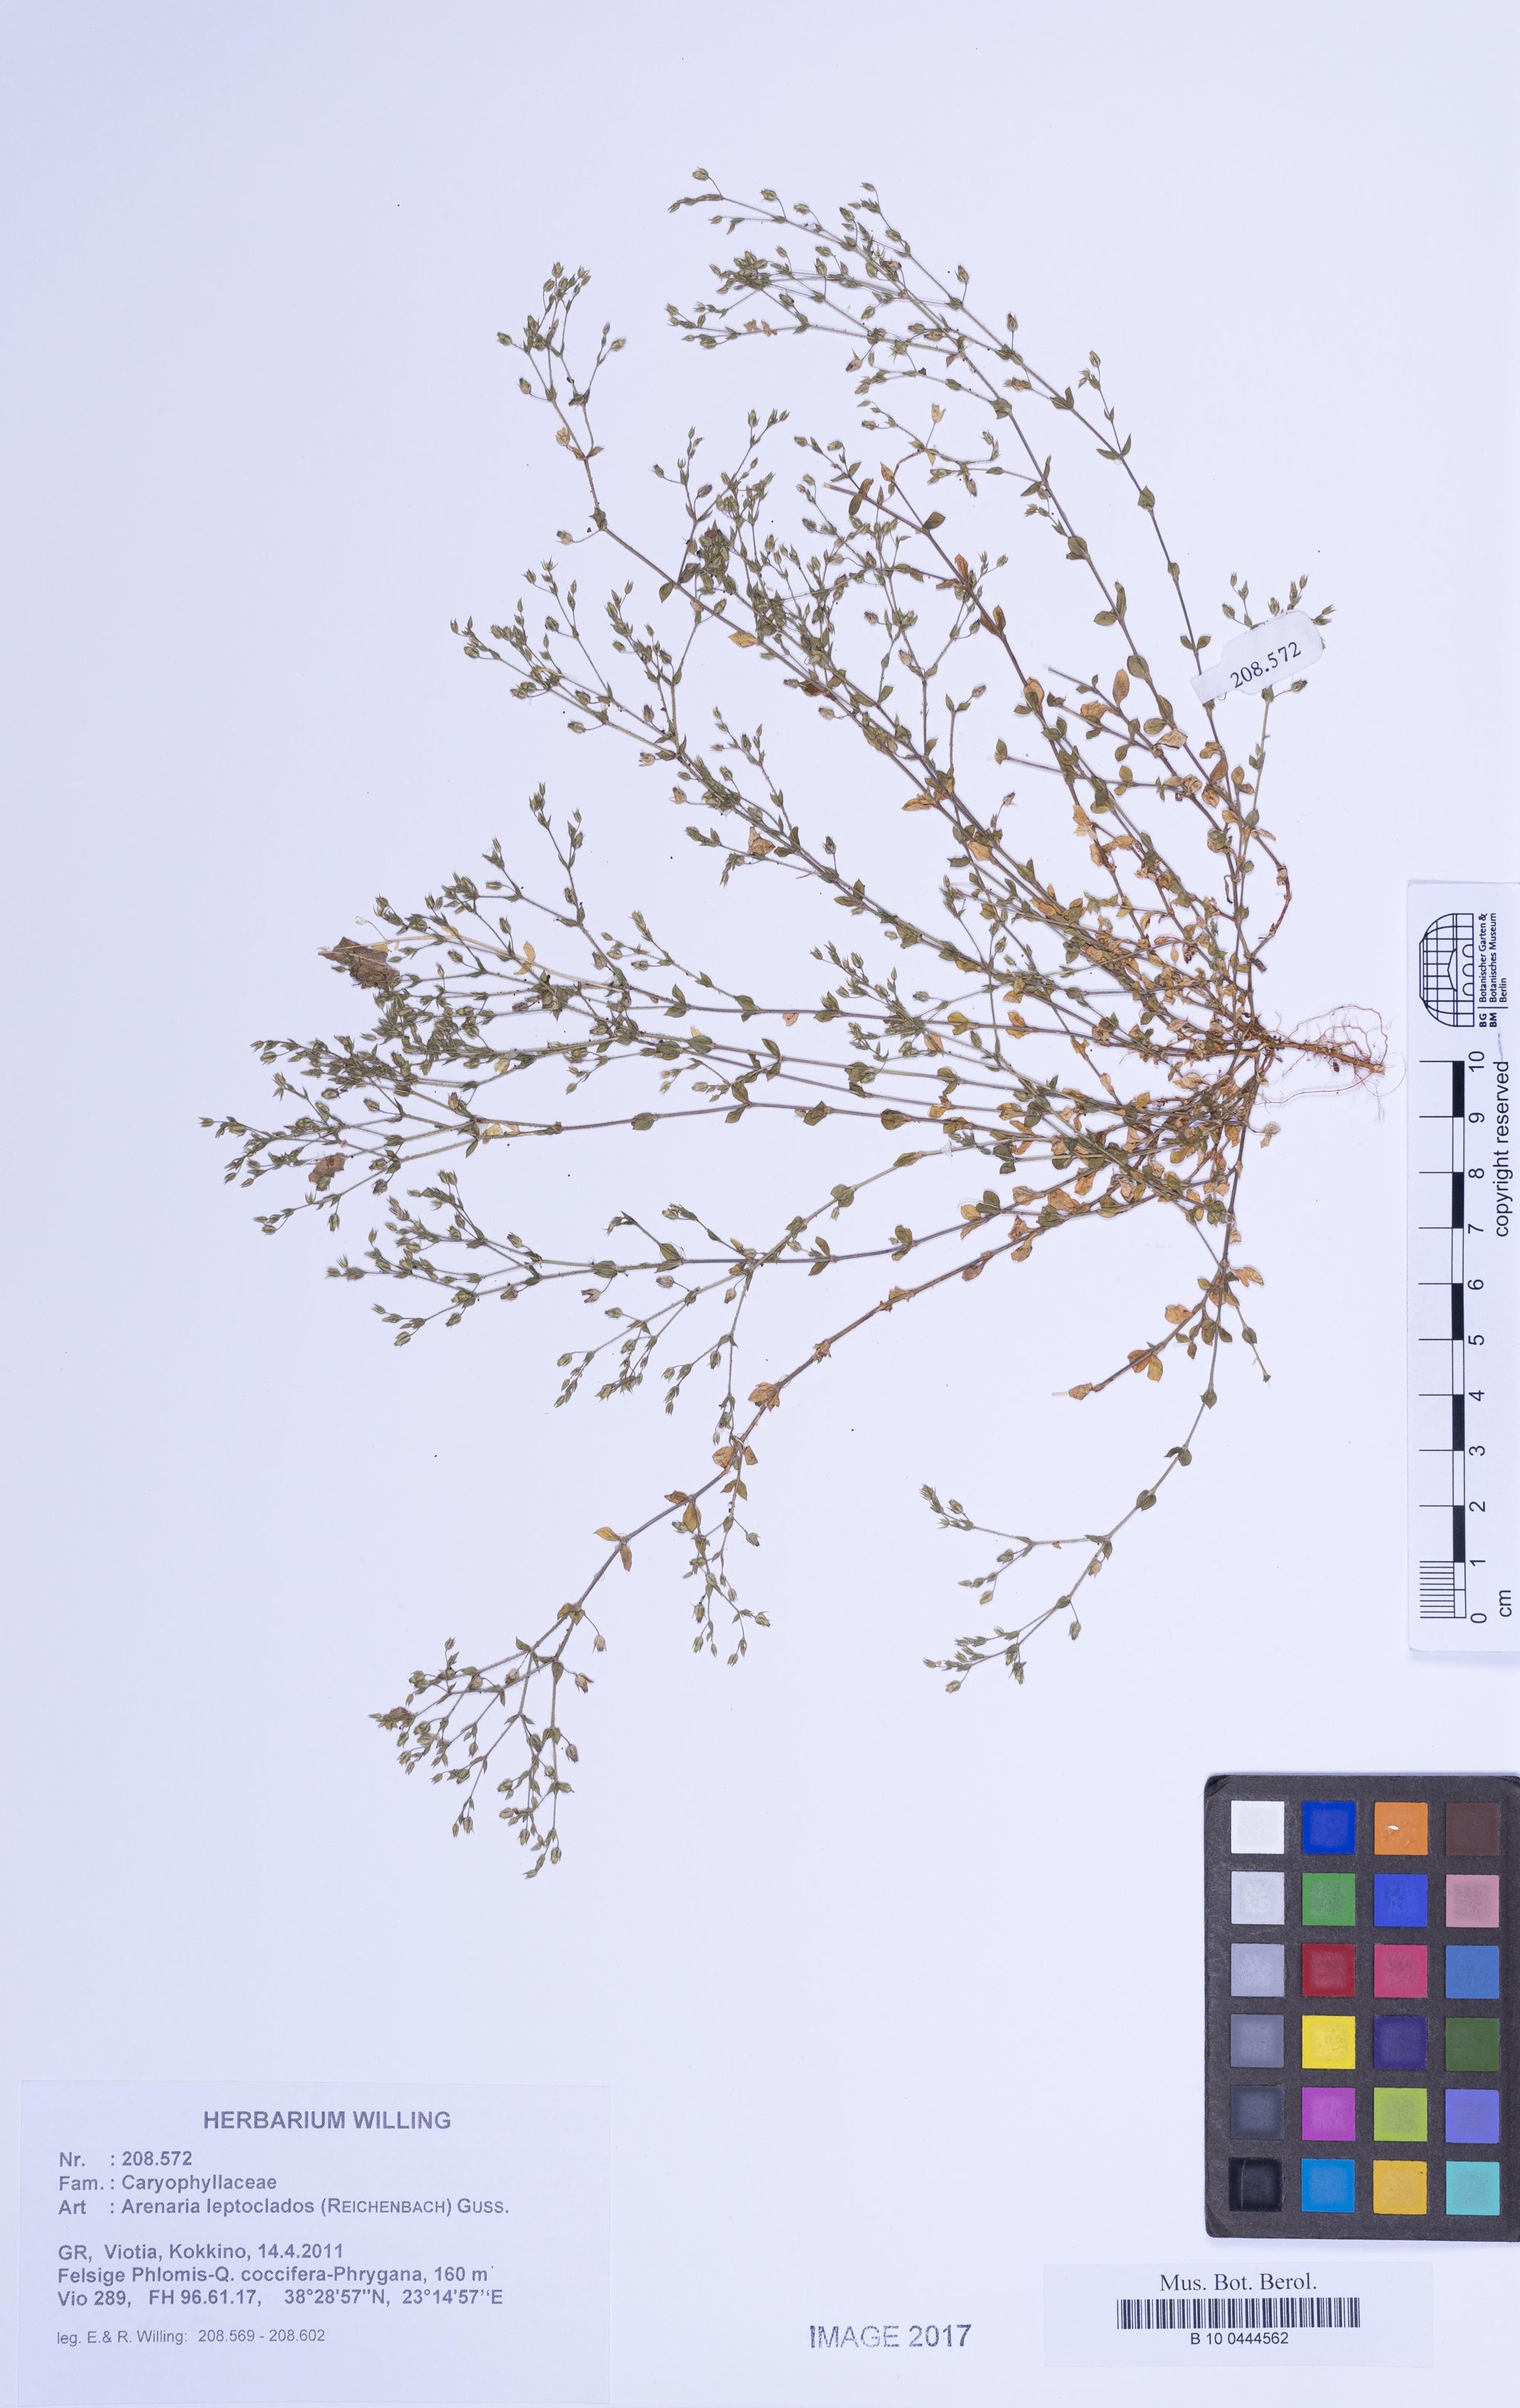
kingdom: Plantae
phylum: Tracheophyta
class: Magnoliopsida
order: Caryophyllales
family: Caryophyllaceae
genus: Arenaria
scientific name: Arenaria leptoclados
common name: Thyme-leaved sandwort
